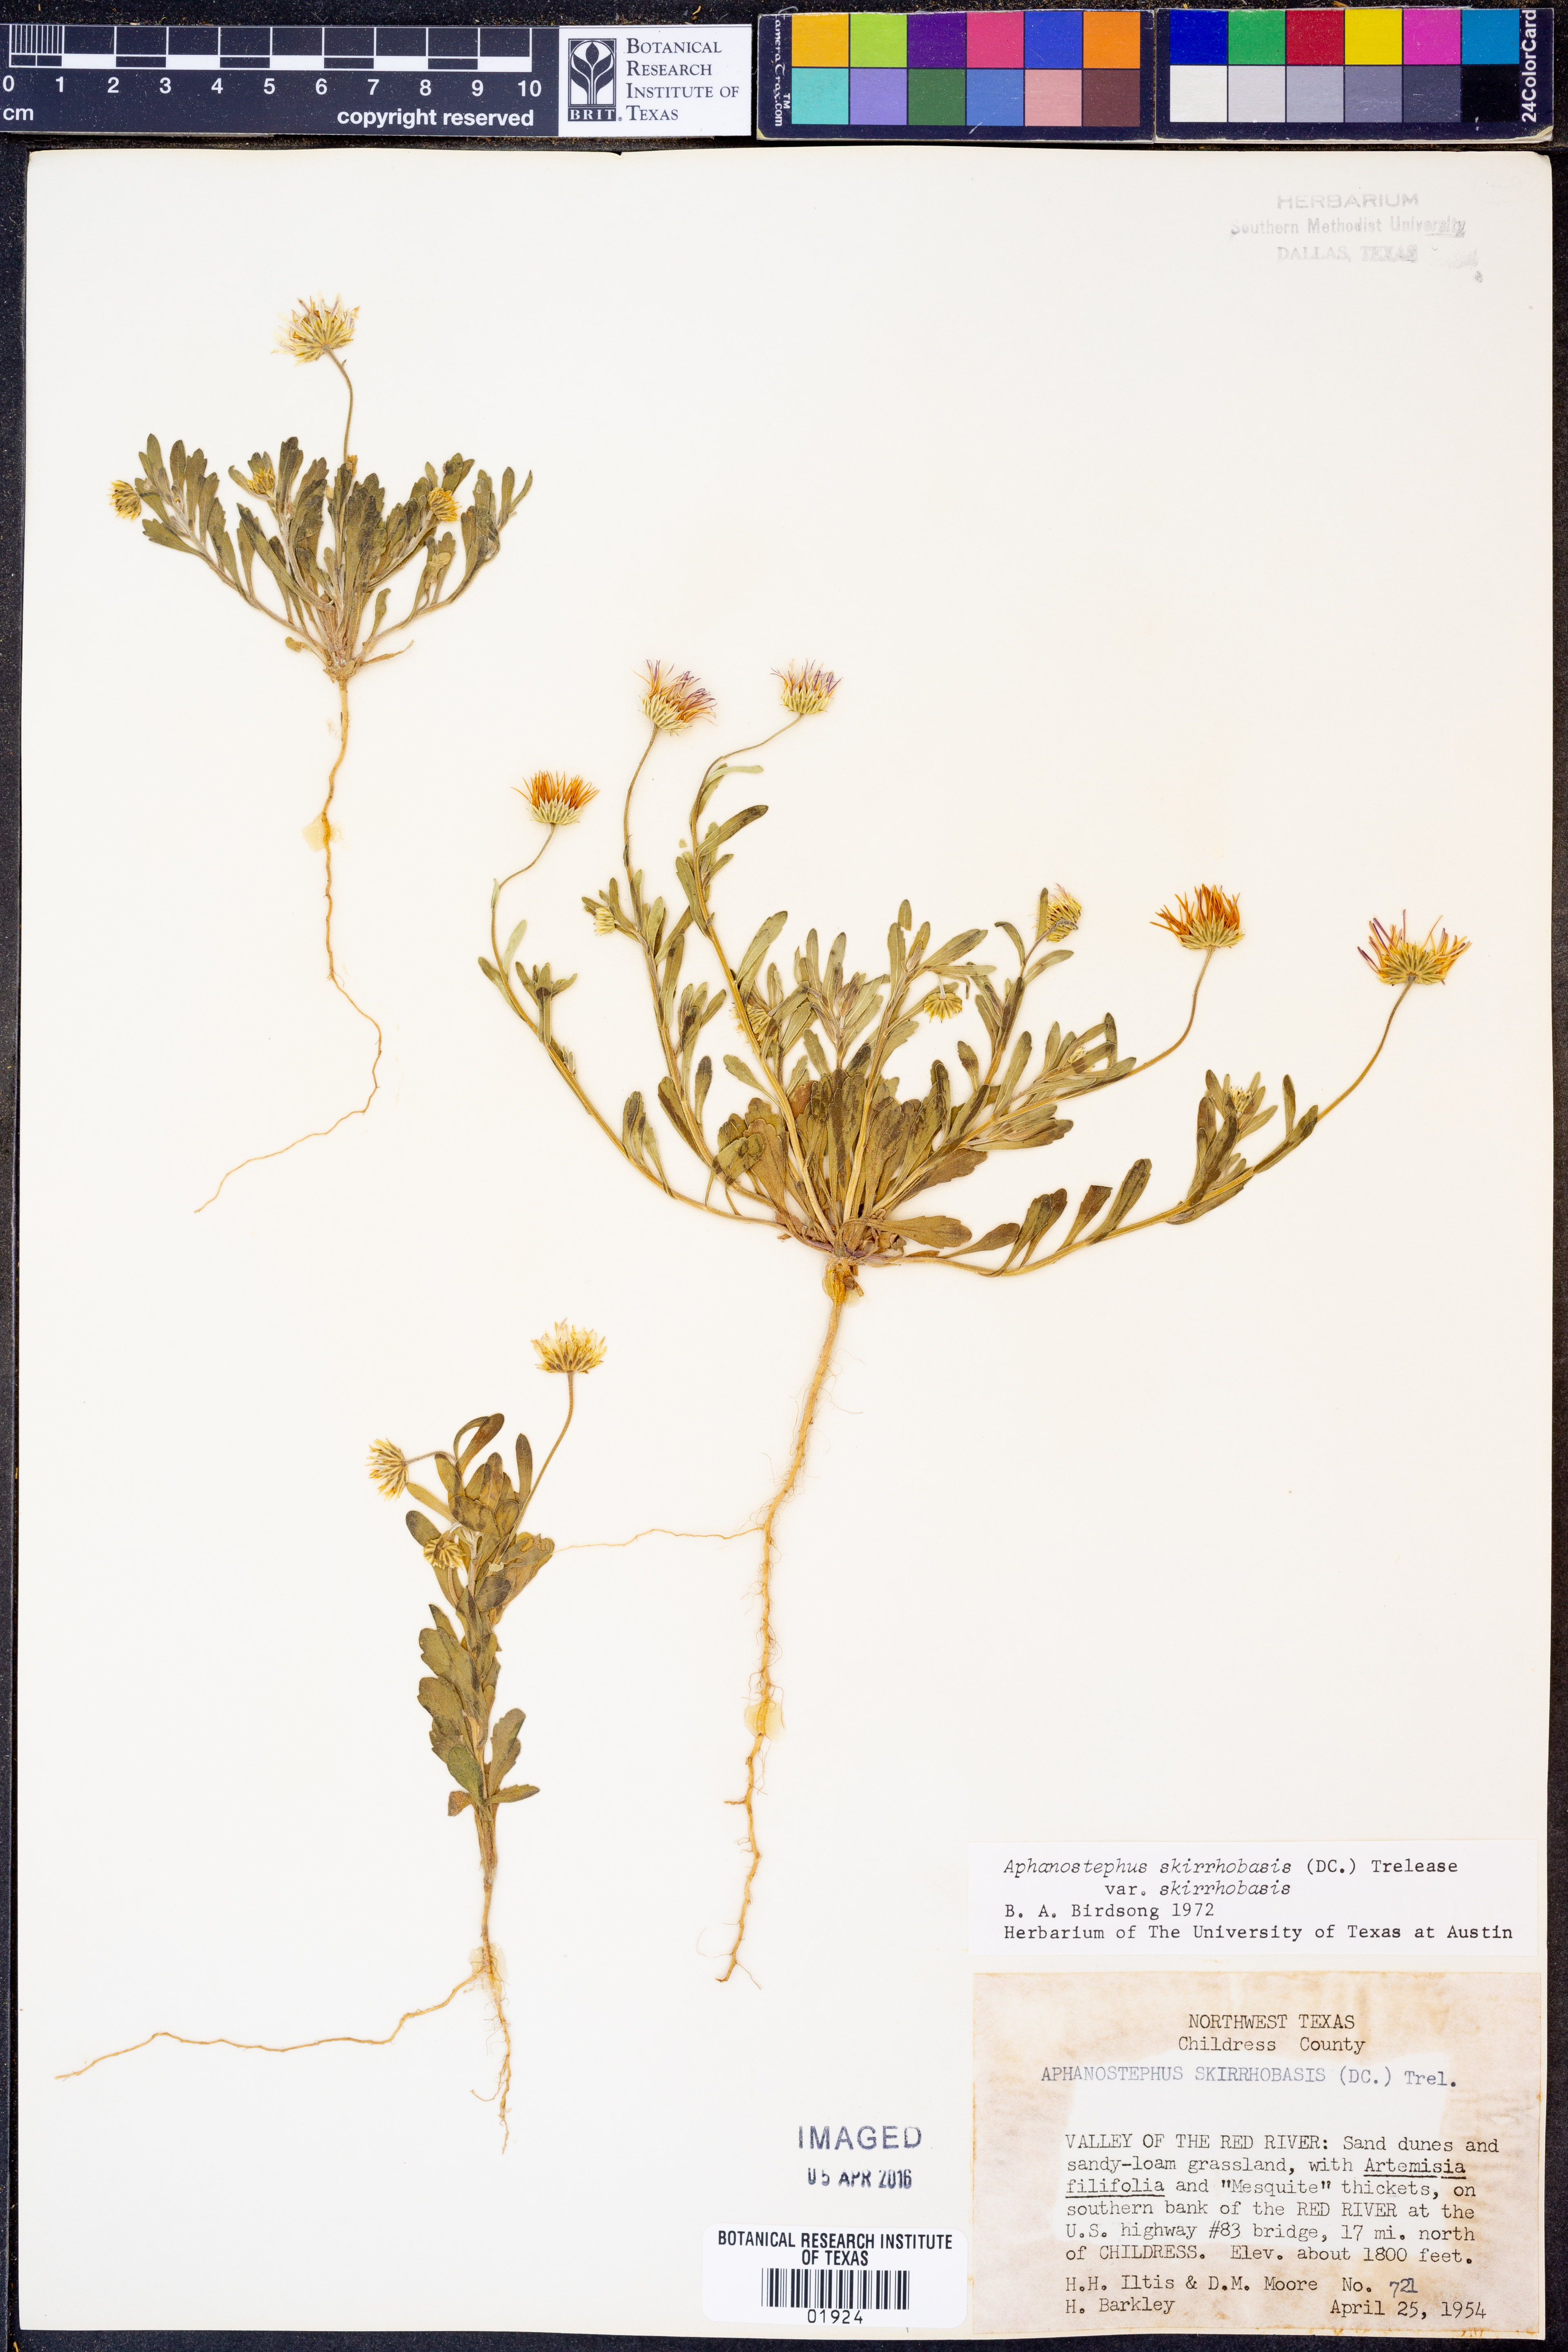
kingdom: Plantae
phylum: Tracheophyta
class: Magnoliopsida
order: Asterales
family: Asteraceae
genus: Aphanostephus
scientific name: Aphanostephus skirrhobasis
